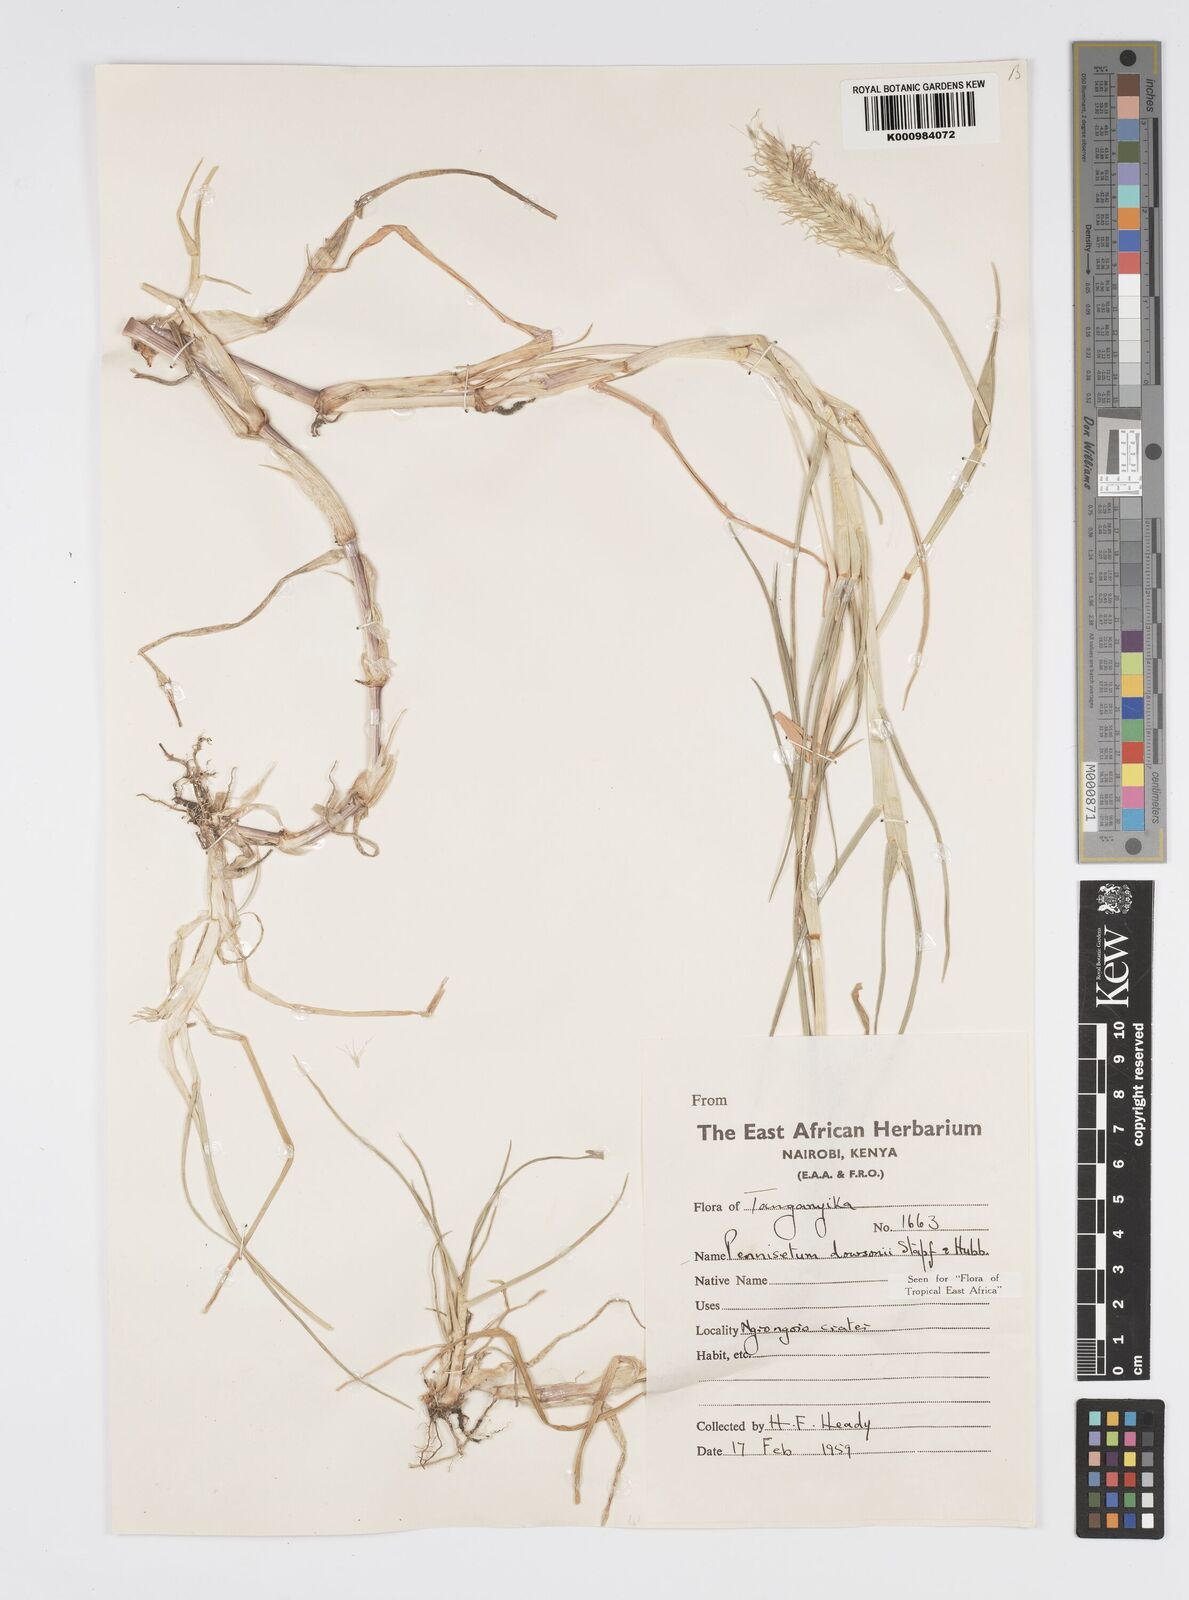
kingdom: Plantae
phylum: Tracheophyta
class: Liliopsida
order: Poales
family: Poaceae
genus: Cenchrus
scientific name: Cenchrus riparius
